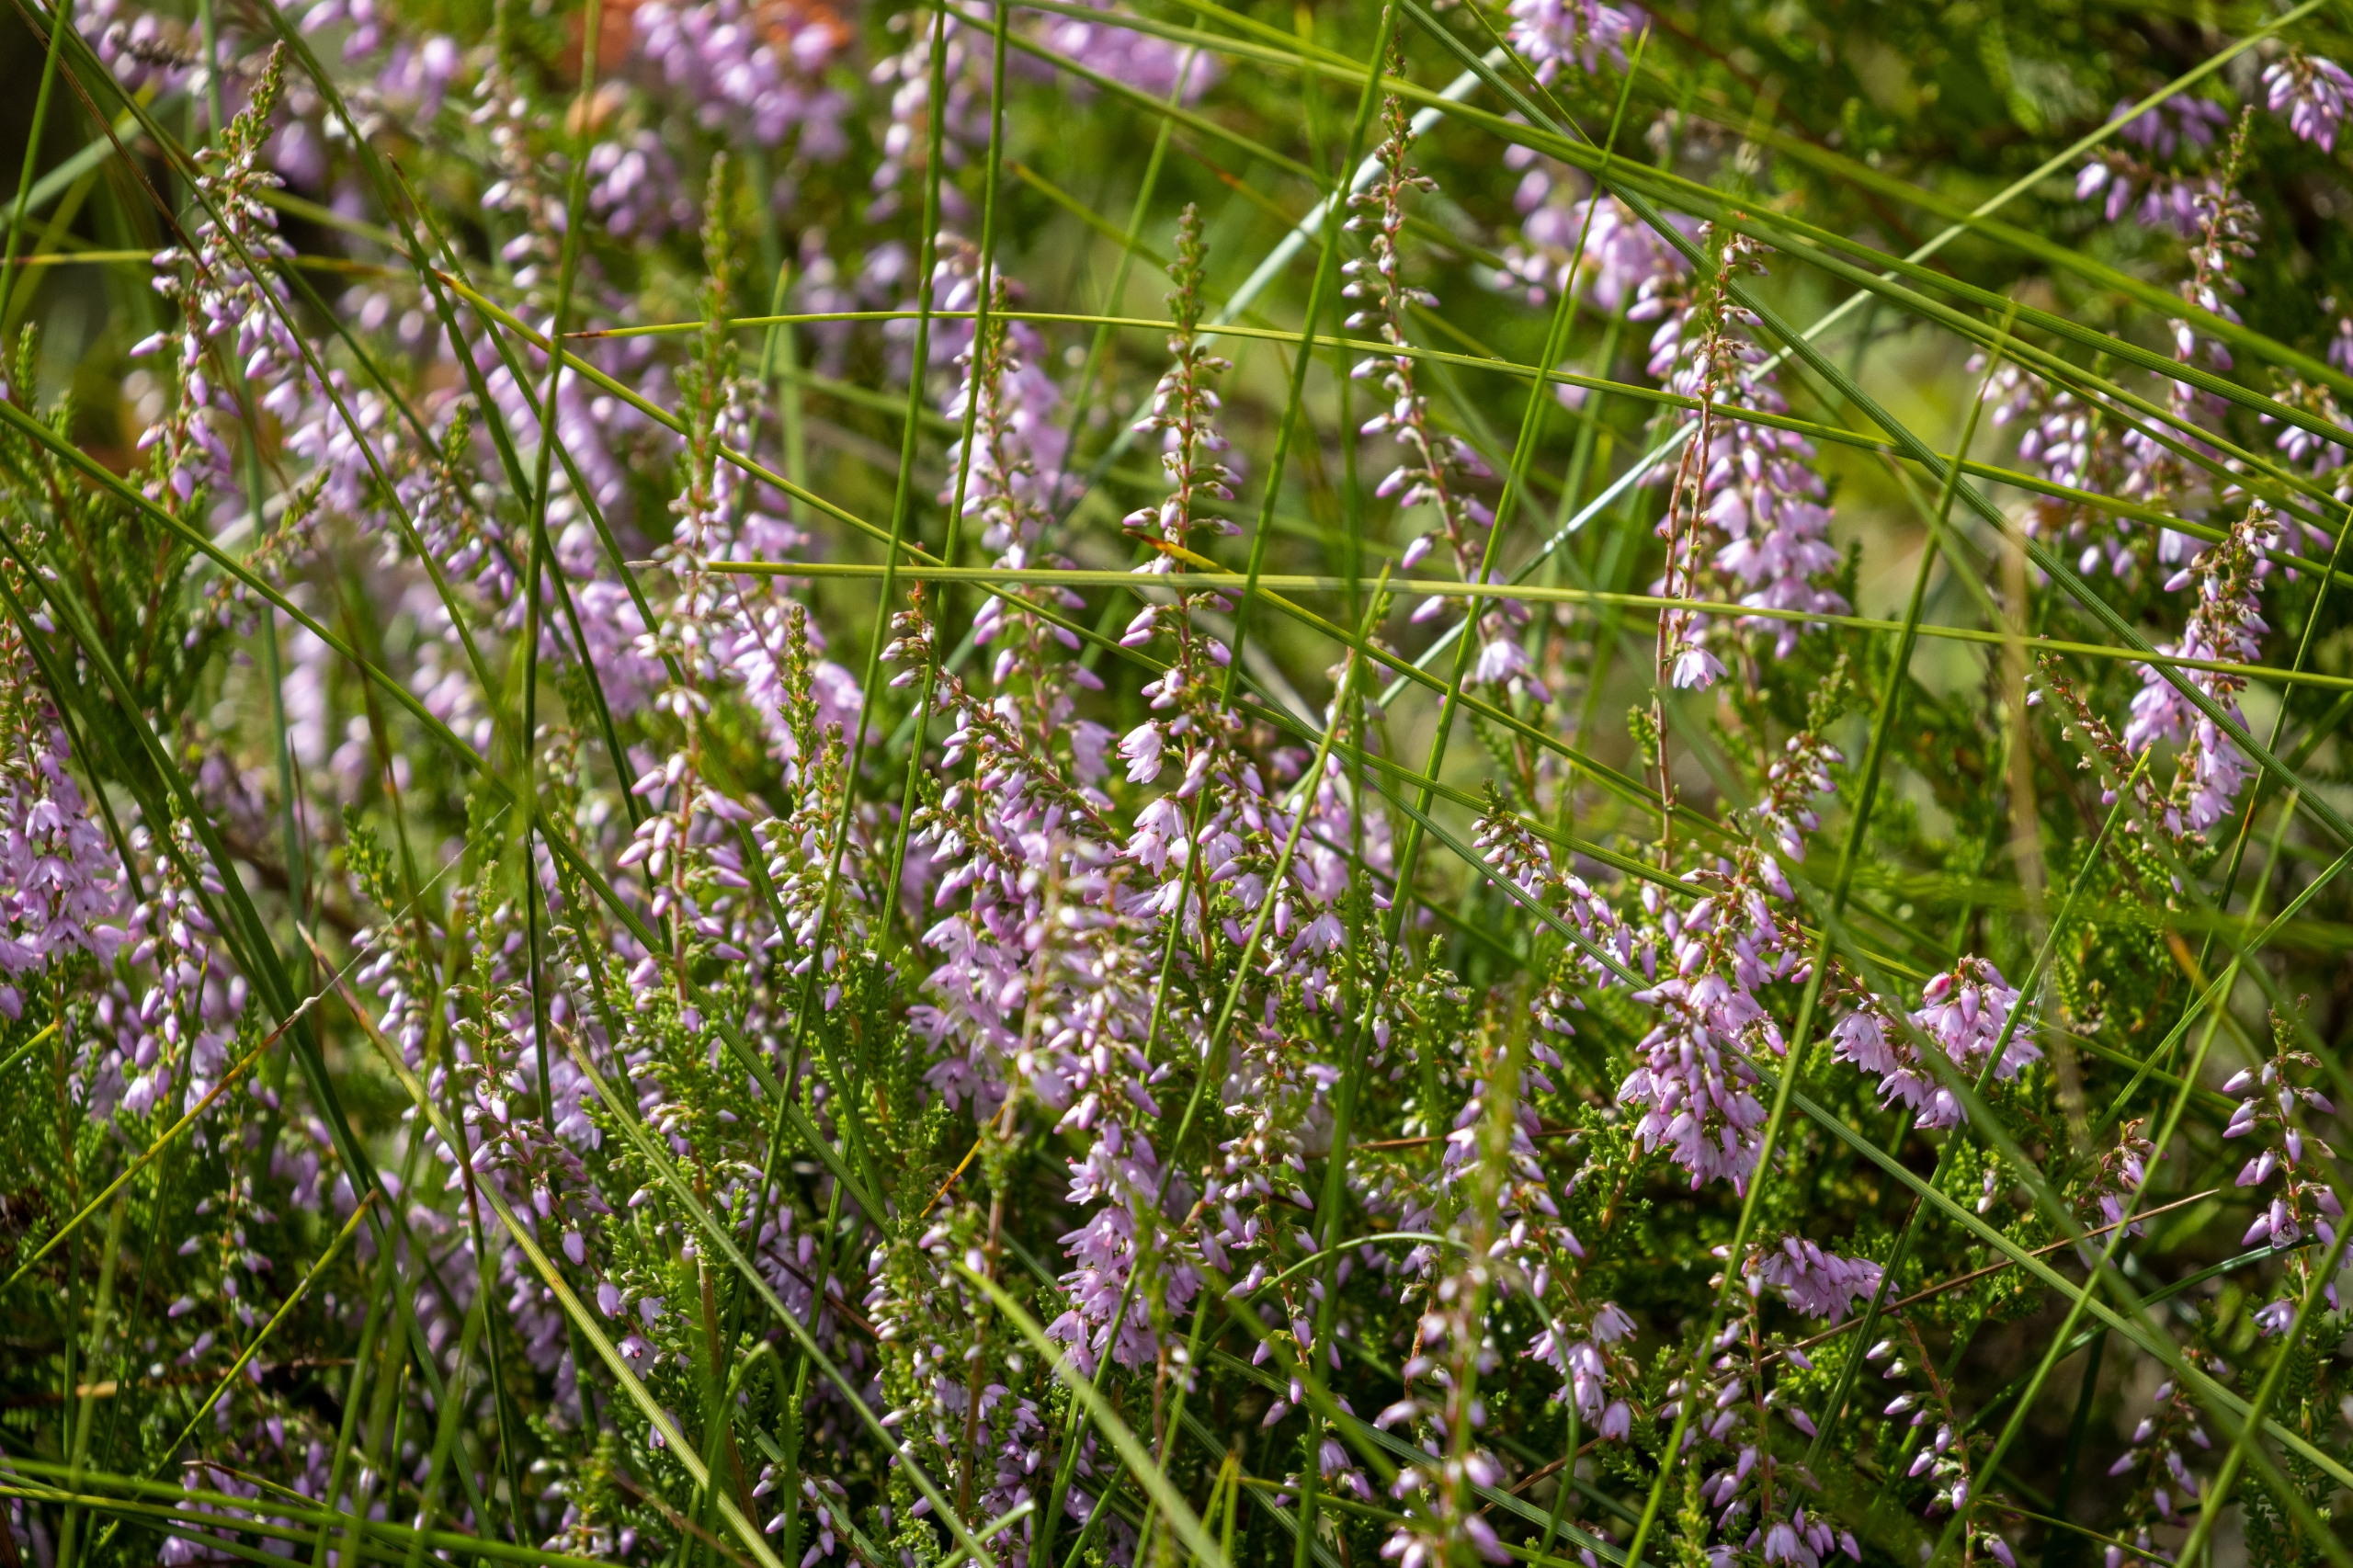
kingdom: Plantae
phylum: Tracheophyta
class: Magnoliopsida
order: Ericales
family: Ericaceae
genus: Calluna
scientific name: Calluna vulgaris
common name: Hedelyng
